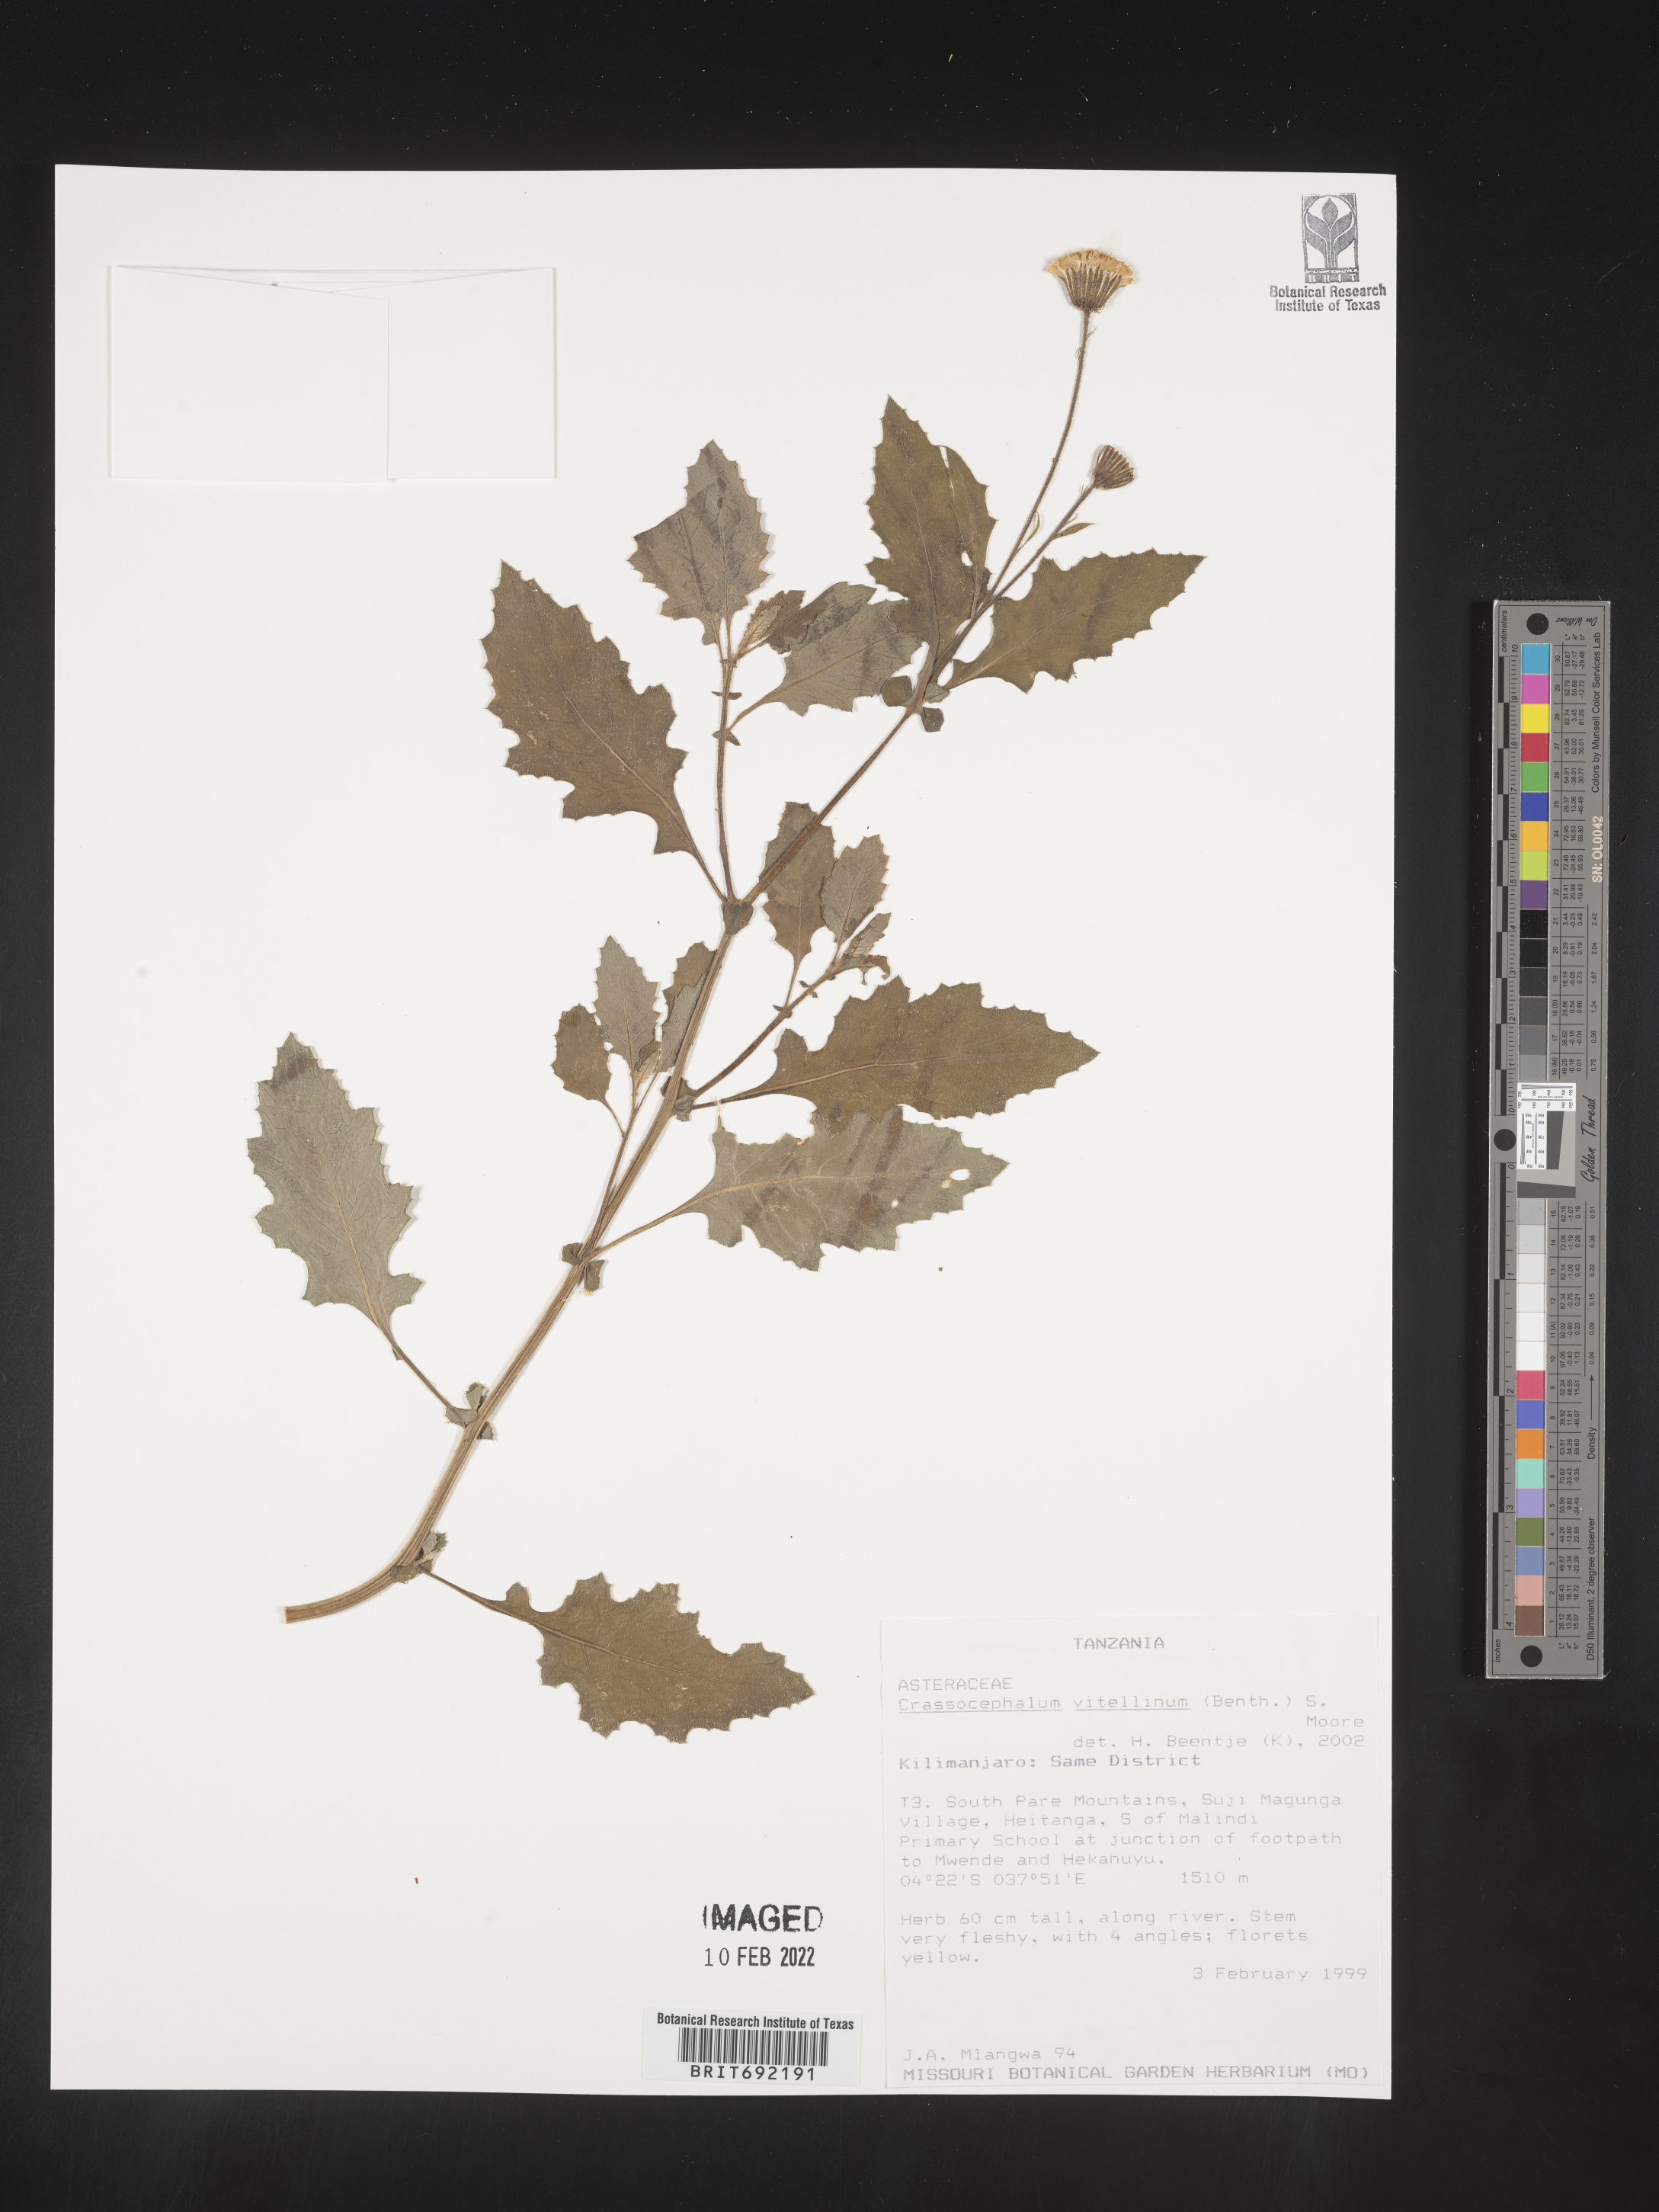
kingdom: Plantae
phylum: Tracheophyta
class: Magnoliopsida
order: Asterales
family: Asteraceae
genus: Crassocephalum
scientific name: Crassocephalum
